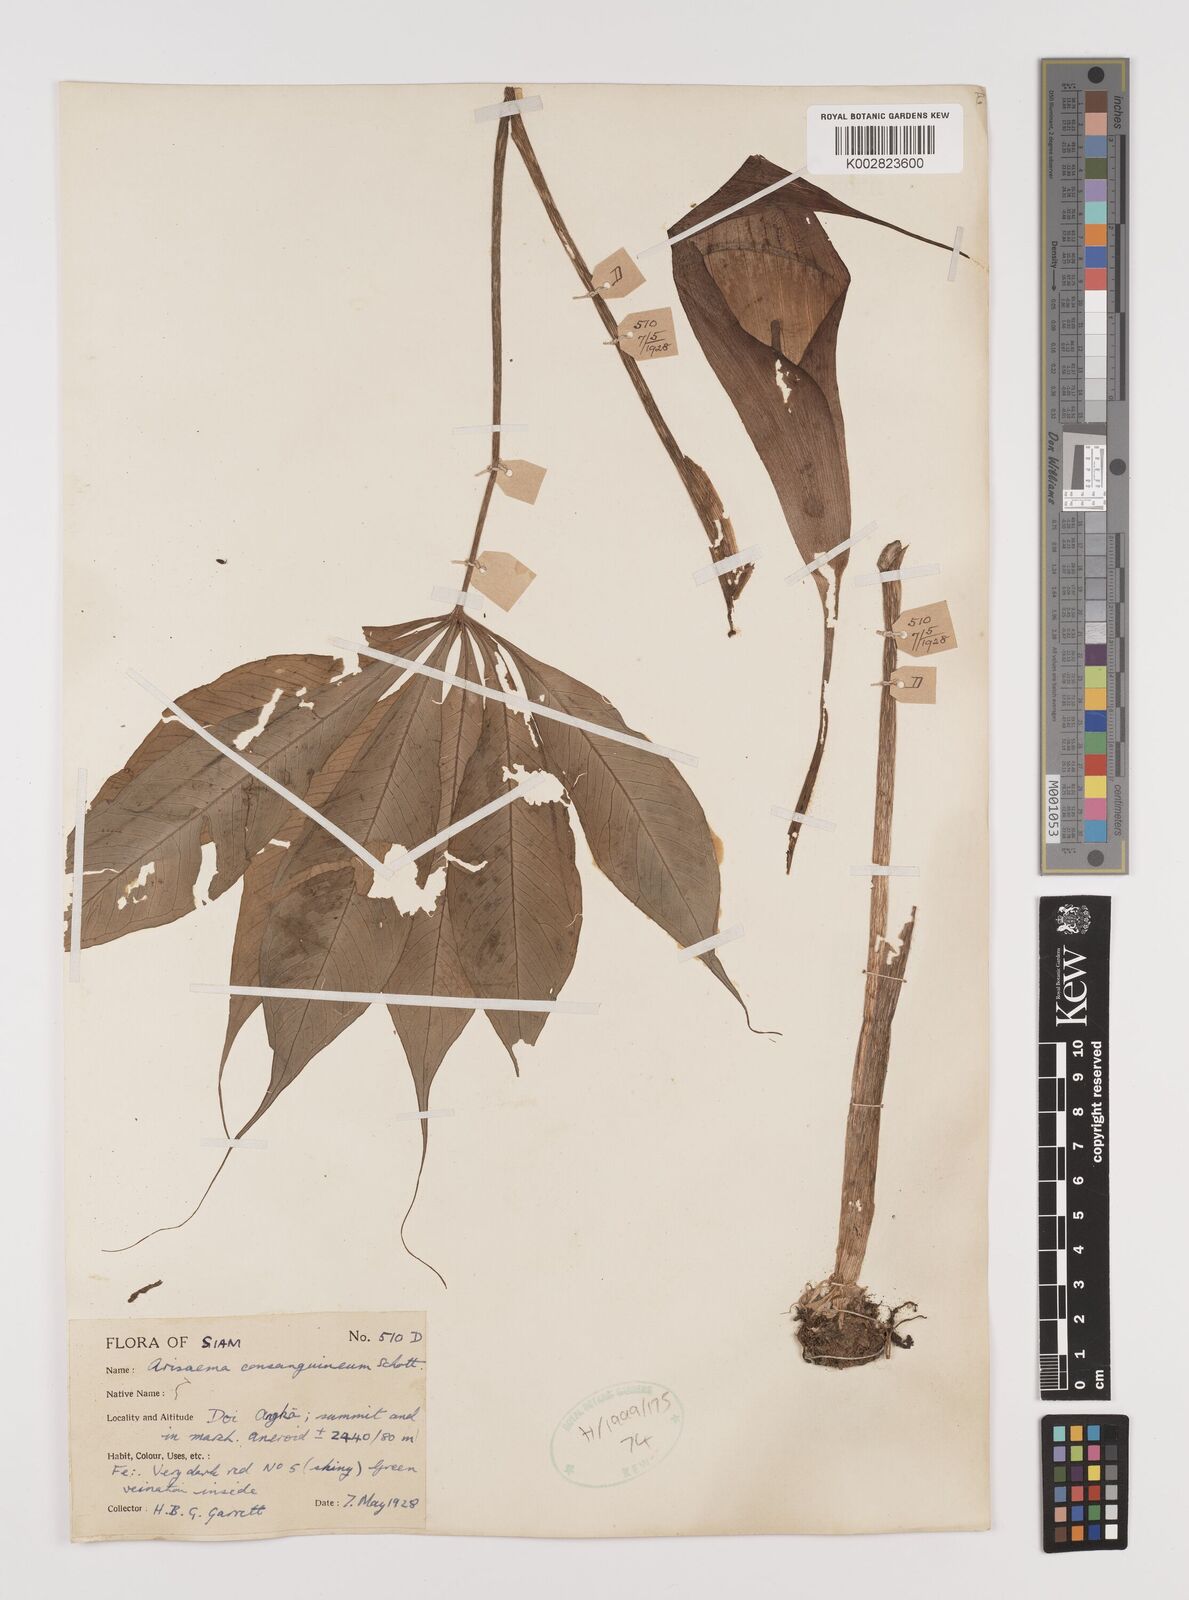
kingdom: Plantae
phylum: Tracheophyta
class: Liliopsida
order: Alismatales
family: Araceae
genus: Arisaema
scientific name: Arisaema consanguineum
